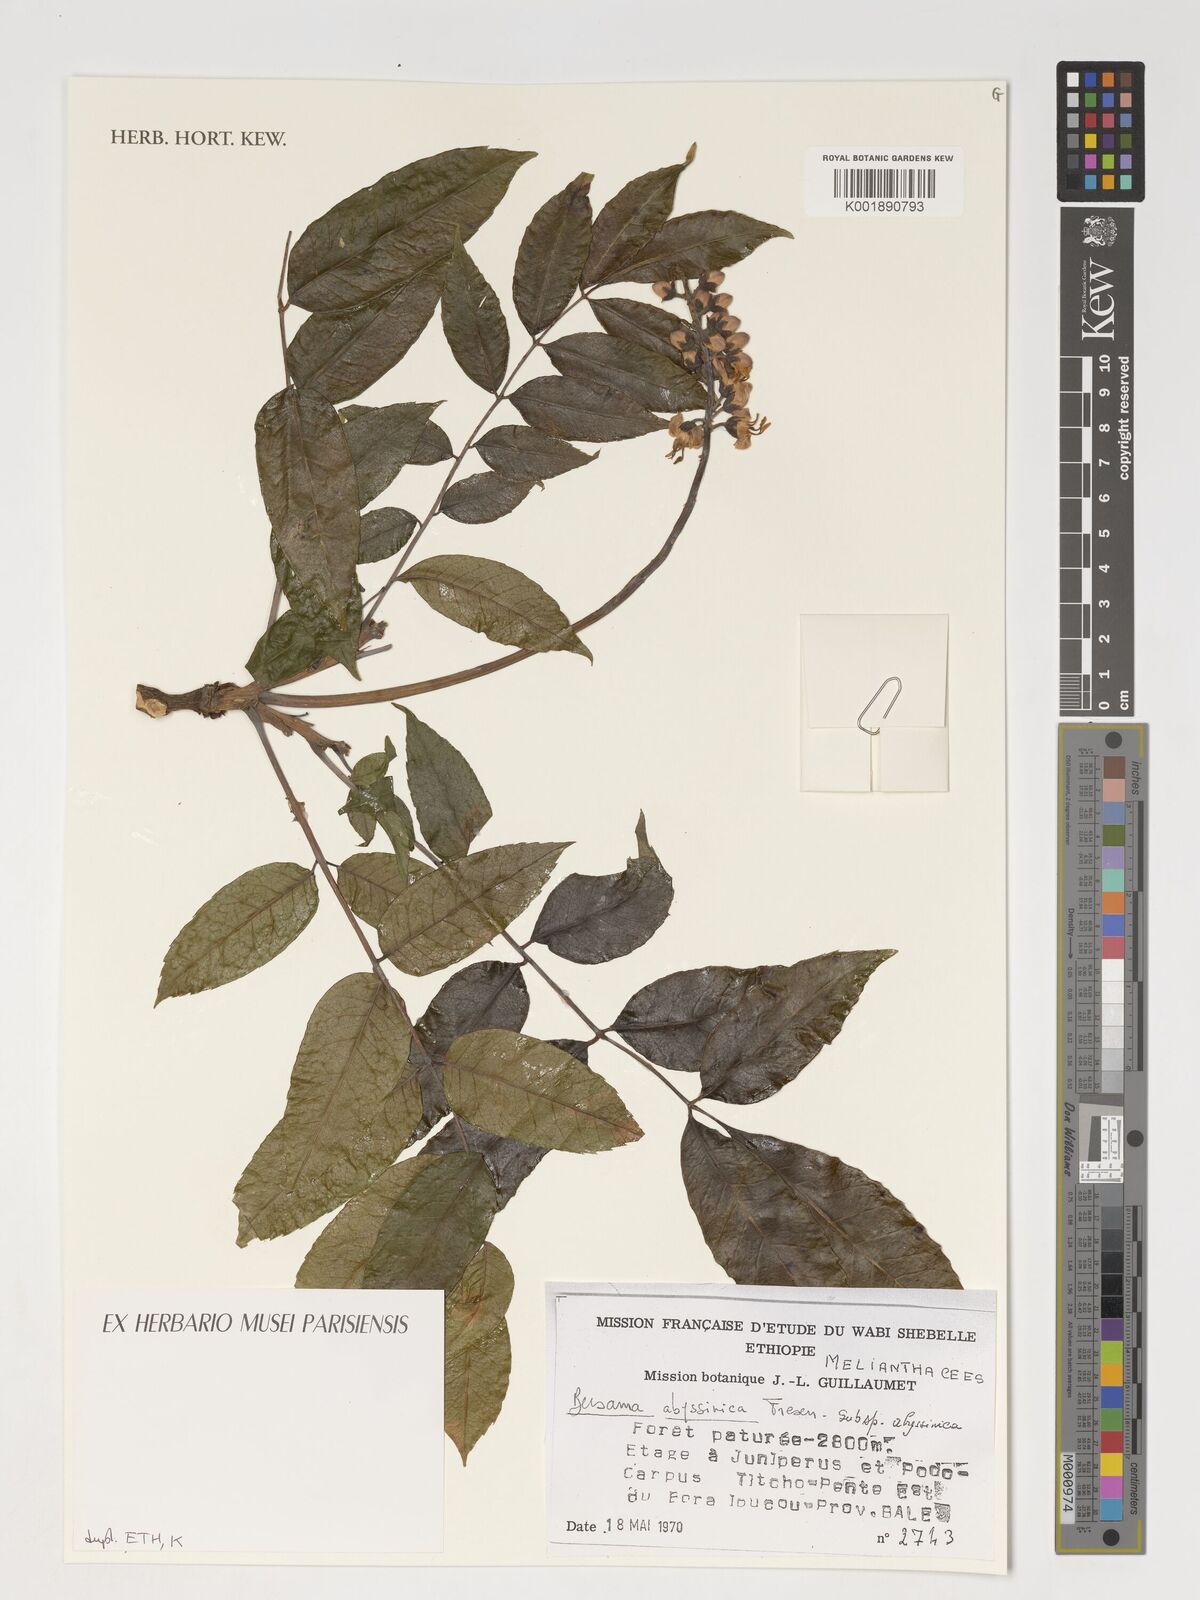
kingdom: Plantae
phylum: Tracheophyta
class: Magnoliopsida
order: Geraniales
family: Melianthaceae
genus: Bersama
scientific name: Bersama abyssinica
